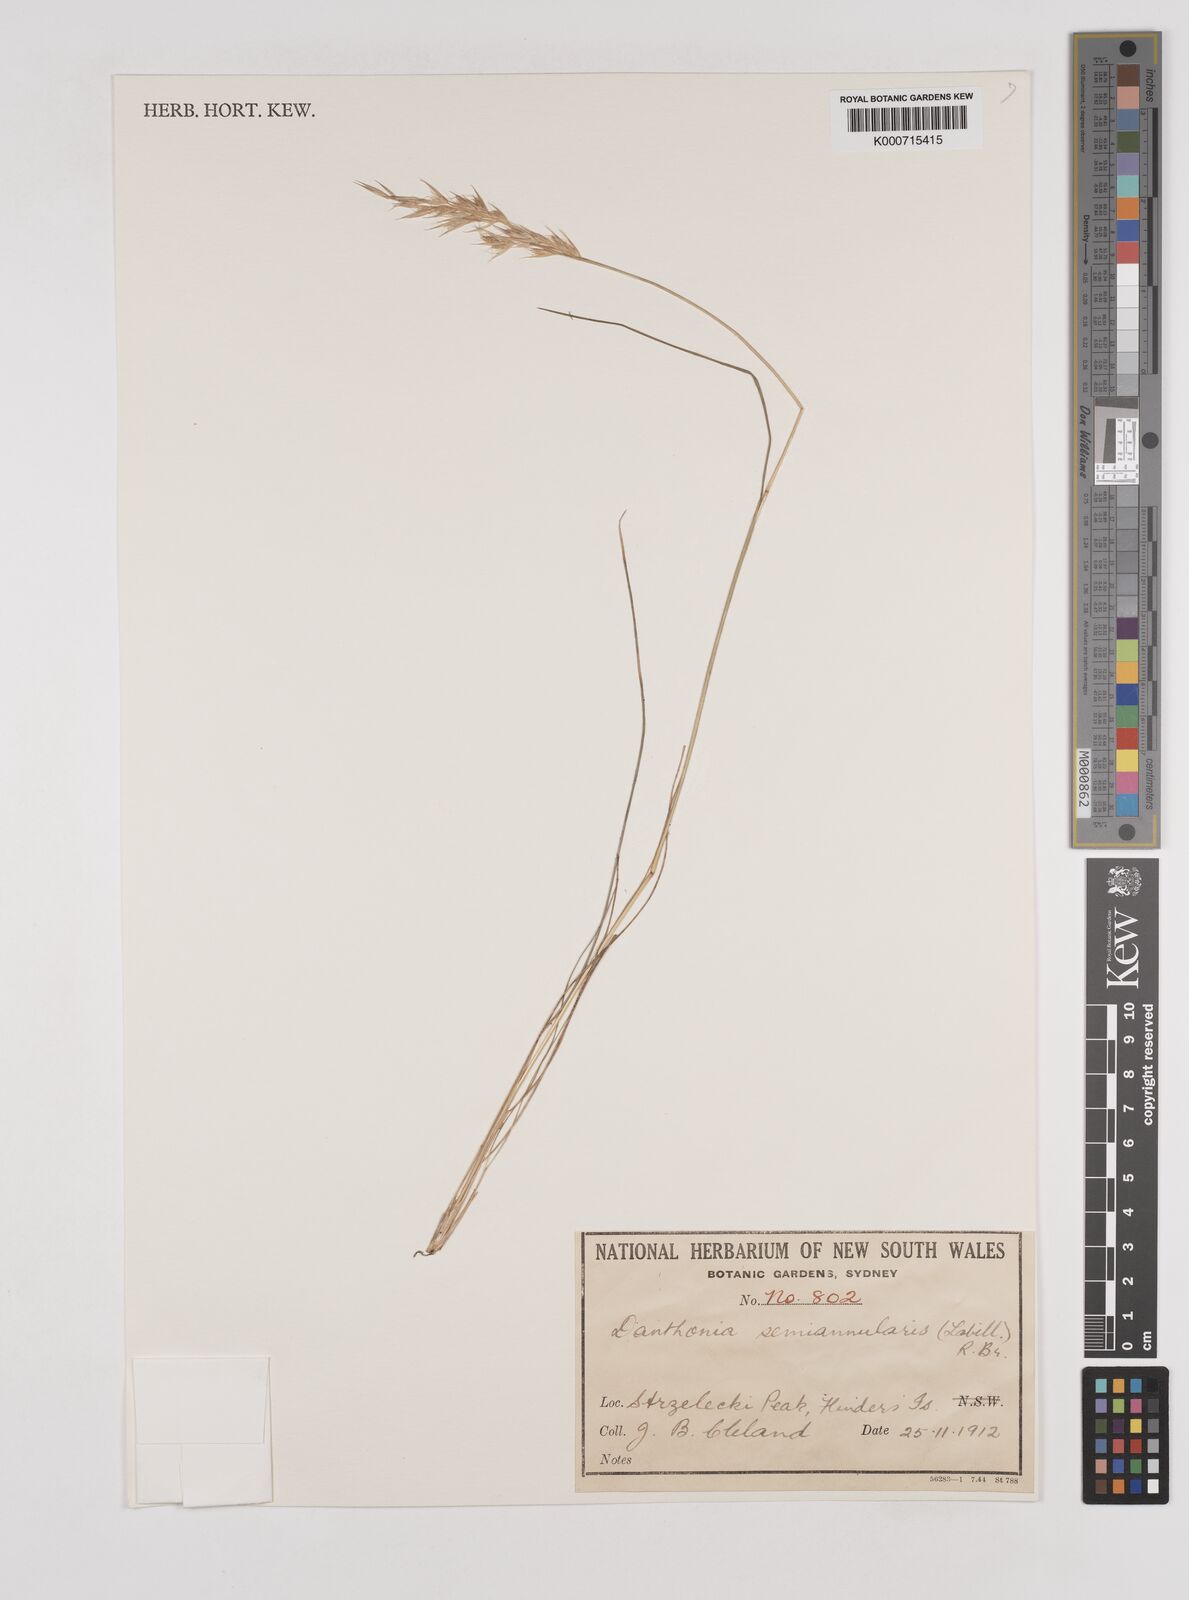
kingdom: Plantae
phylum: Tracheophyta
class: Liliopsida
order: Poales
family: Poaceae
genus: Rytidosperma
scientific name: Rytidosperma semiannulare
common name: Tasmanian wallaby grass
